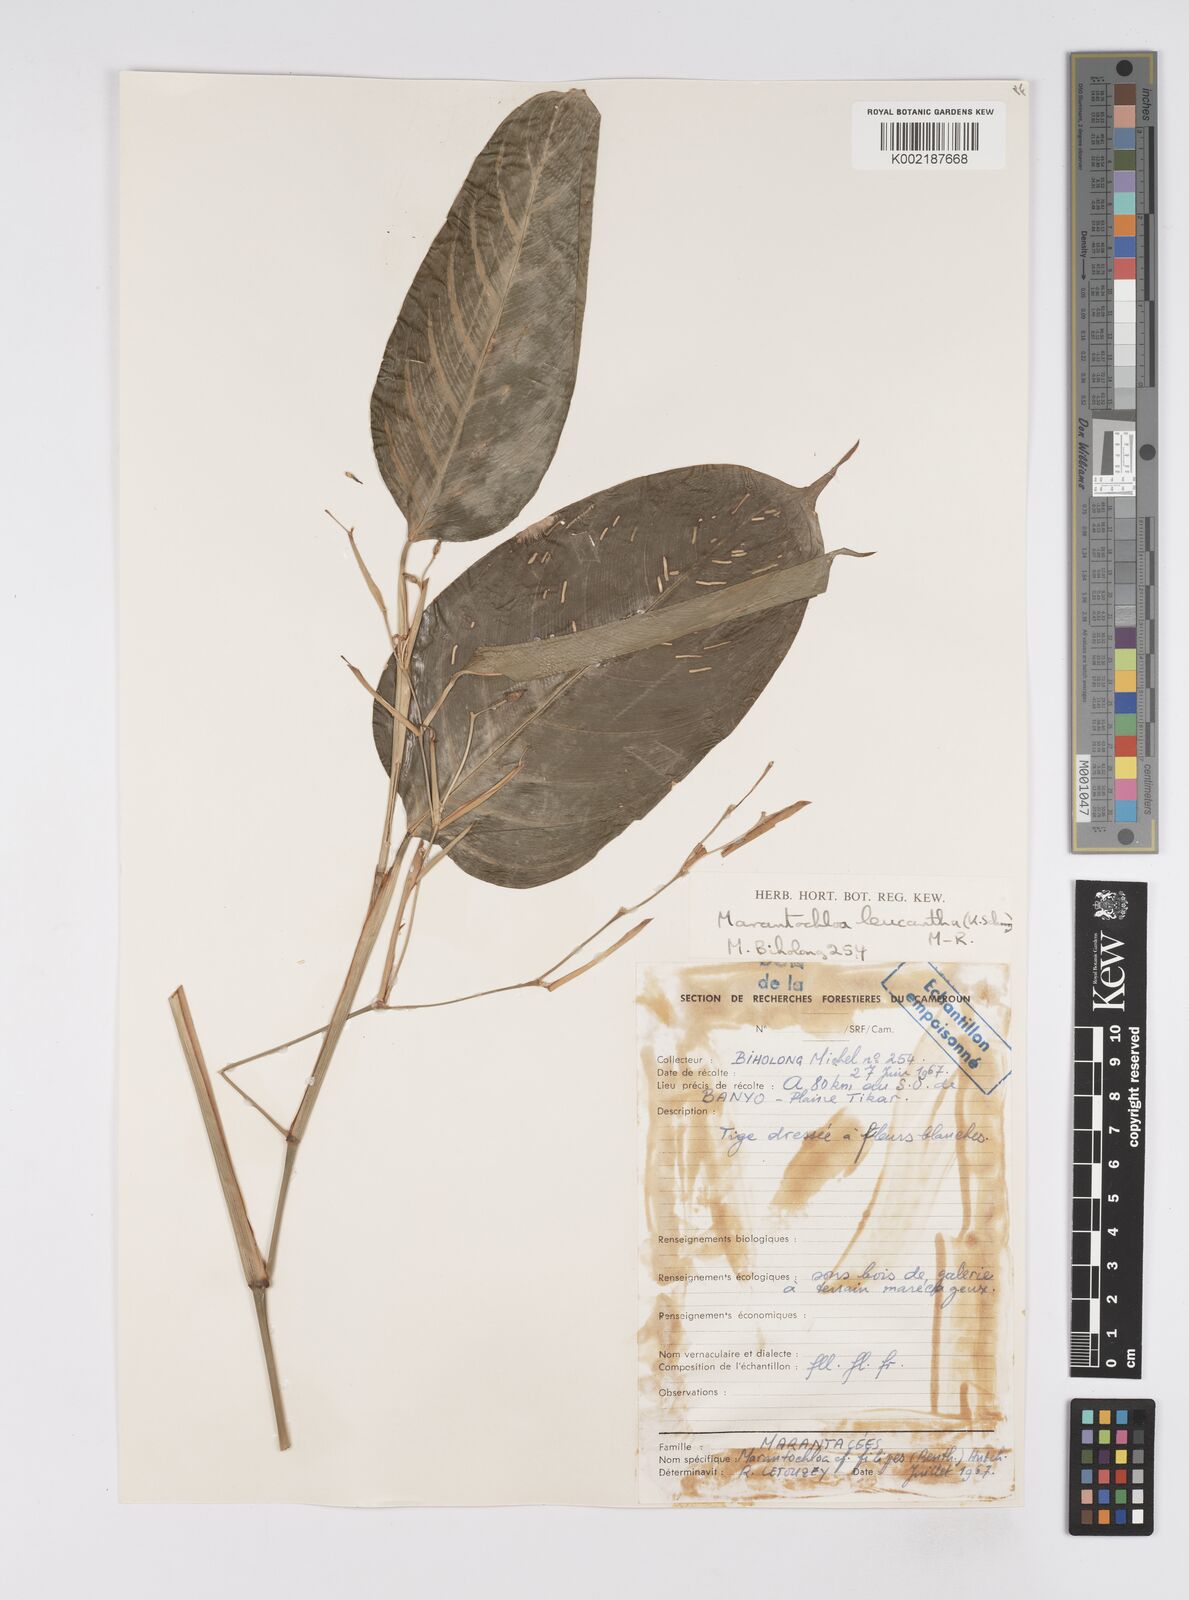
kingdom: Plantae
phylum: Tracheophyta
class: Liliopsida
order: Zingiberales
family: Marantaceae
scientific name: Marantaceae
